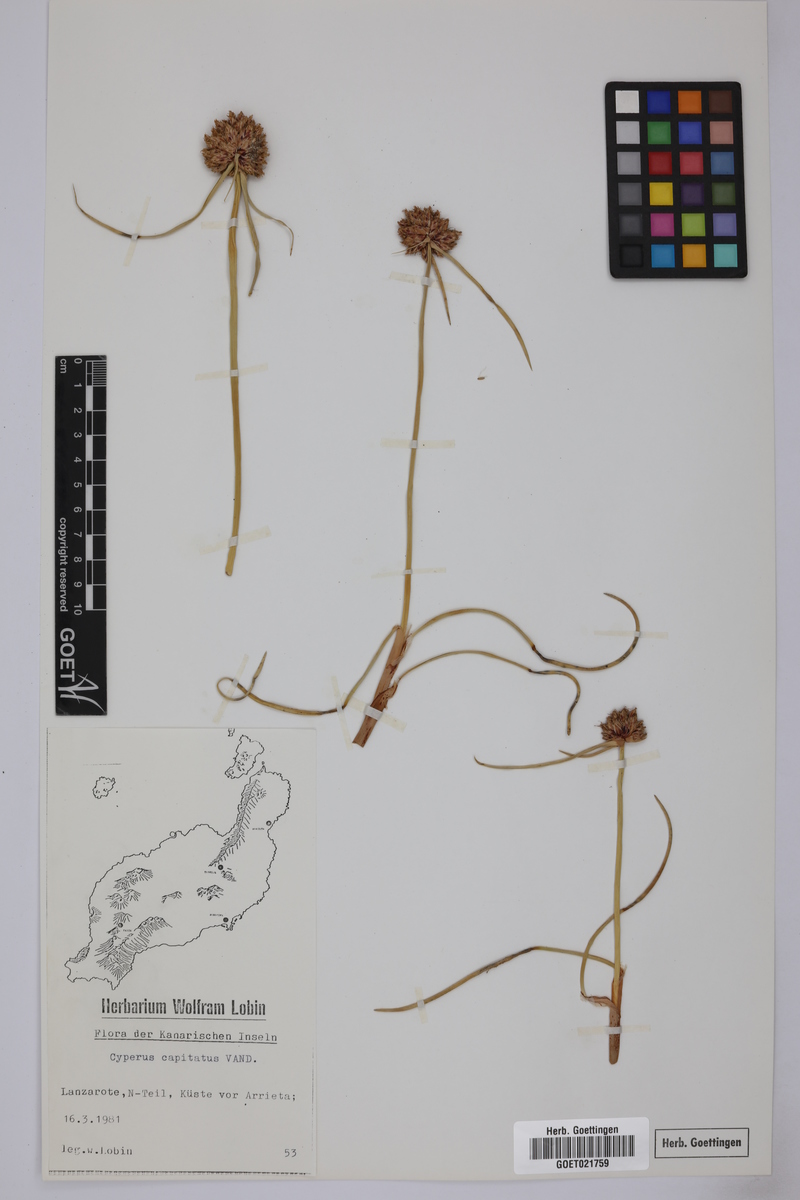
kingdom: Plantae
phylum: Tracheophyta
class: Liliopsida
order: Poales
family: Cyperaceae
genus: Cyperus
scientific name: Cyperus capitatus
